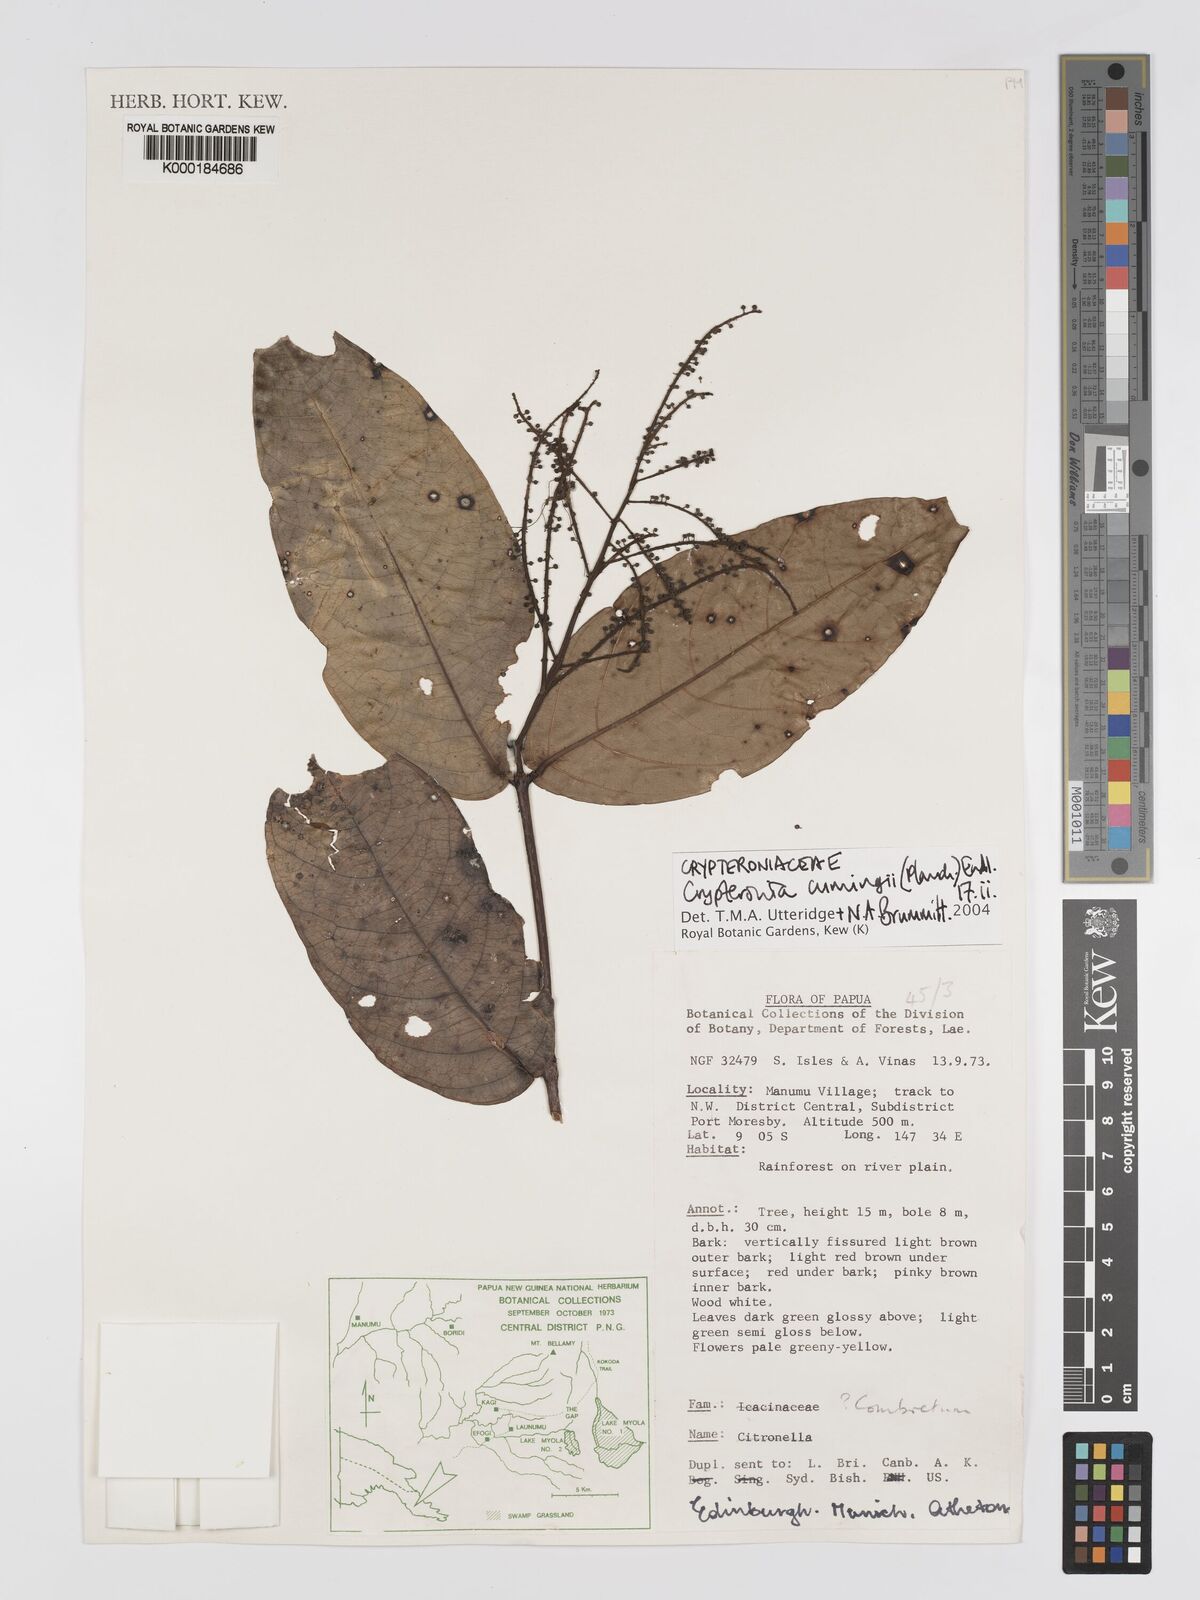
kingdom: Plantae
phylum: Tracheophyta
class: Magnoliopsida
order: Myrtales
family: Crypteroniaceae
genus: Crypteronia
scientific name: Crypteronia cumingii
